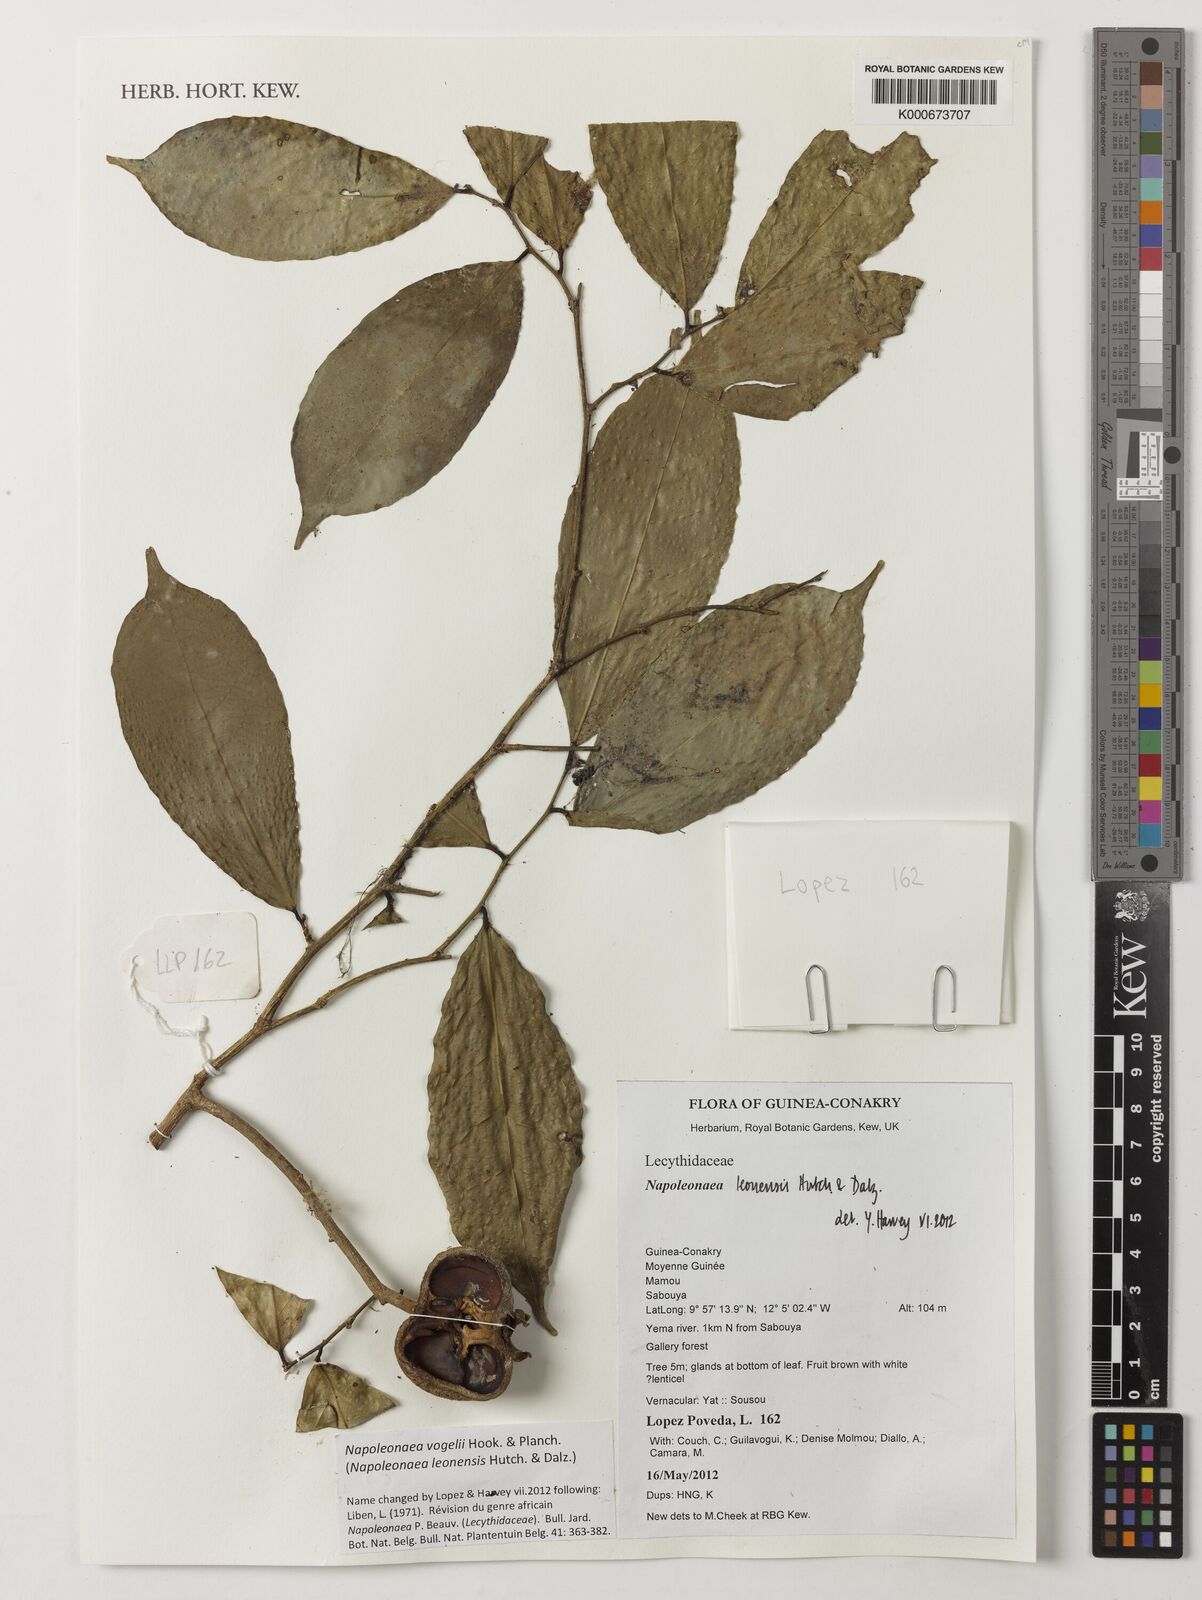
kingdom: Plantae
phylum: Tracheophyta
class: Magnoliopsida
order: Ericales
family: Lecythidaceae
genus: Napoleonaea
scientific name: Napoleonaea vogelii
